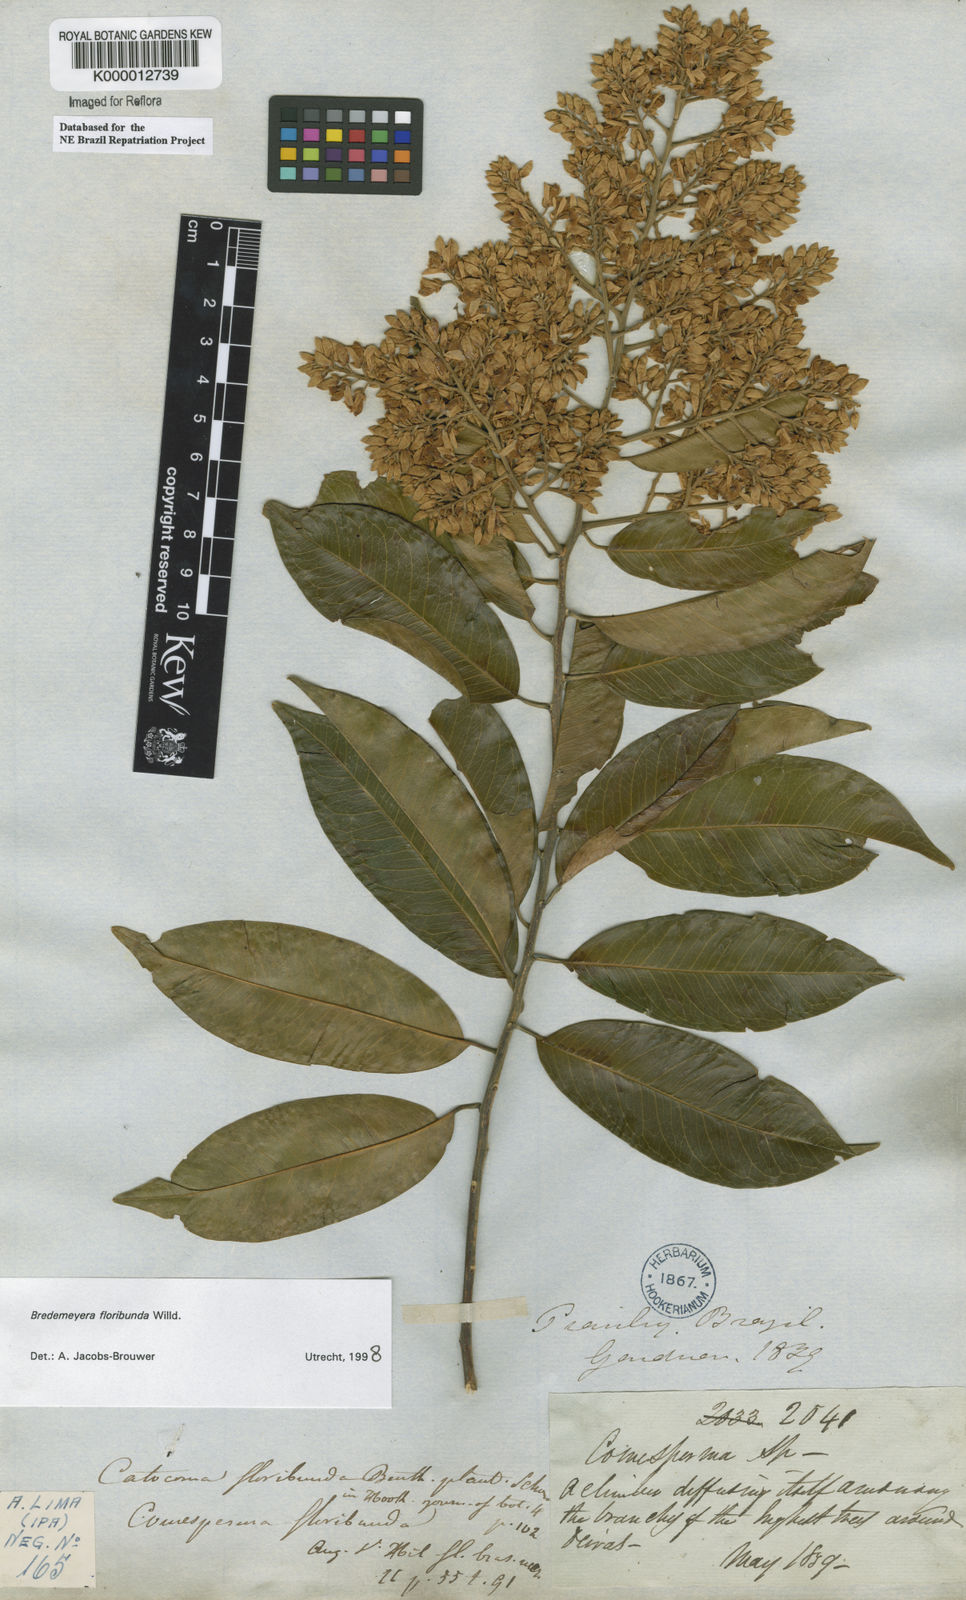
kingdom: Plantae
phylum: Tracheophyta
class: Magnoliopsida
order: Fabales
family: Polygalaceae
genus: Bredemeyera
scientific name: Bredemeyera floribunda
